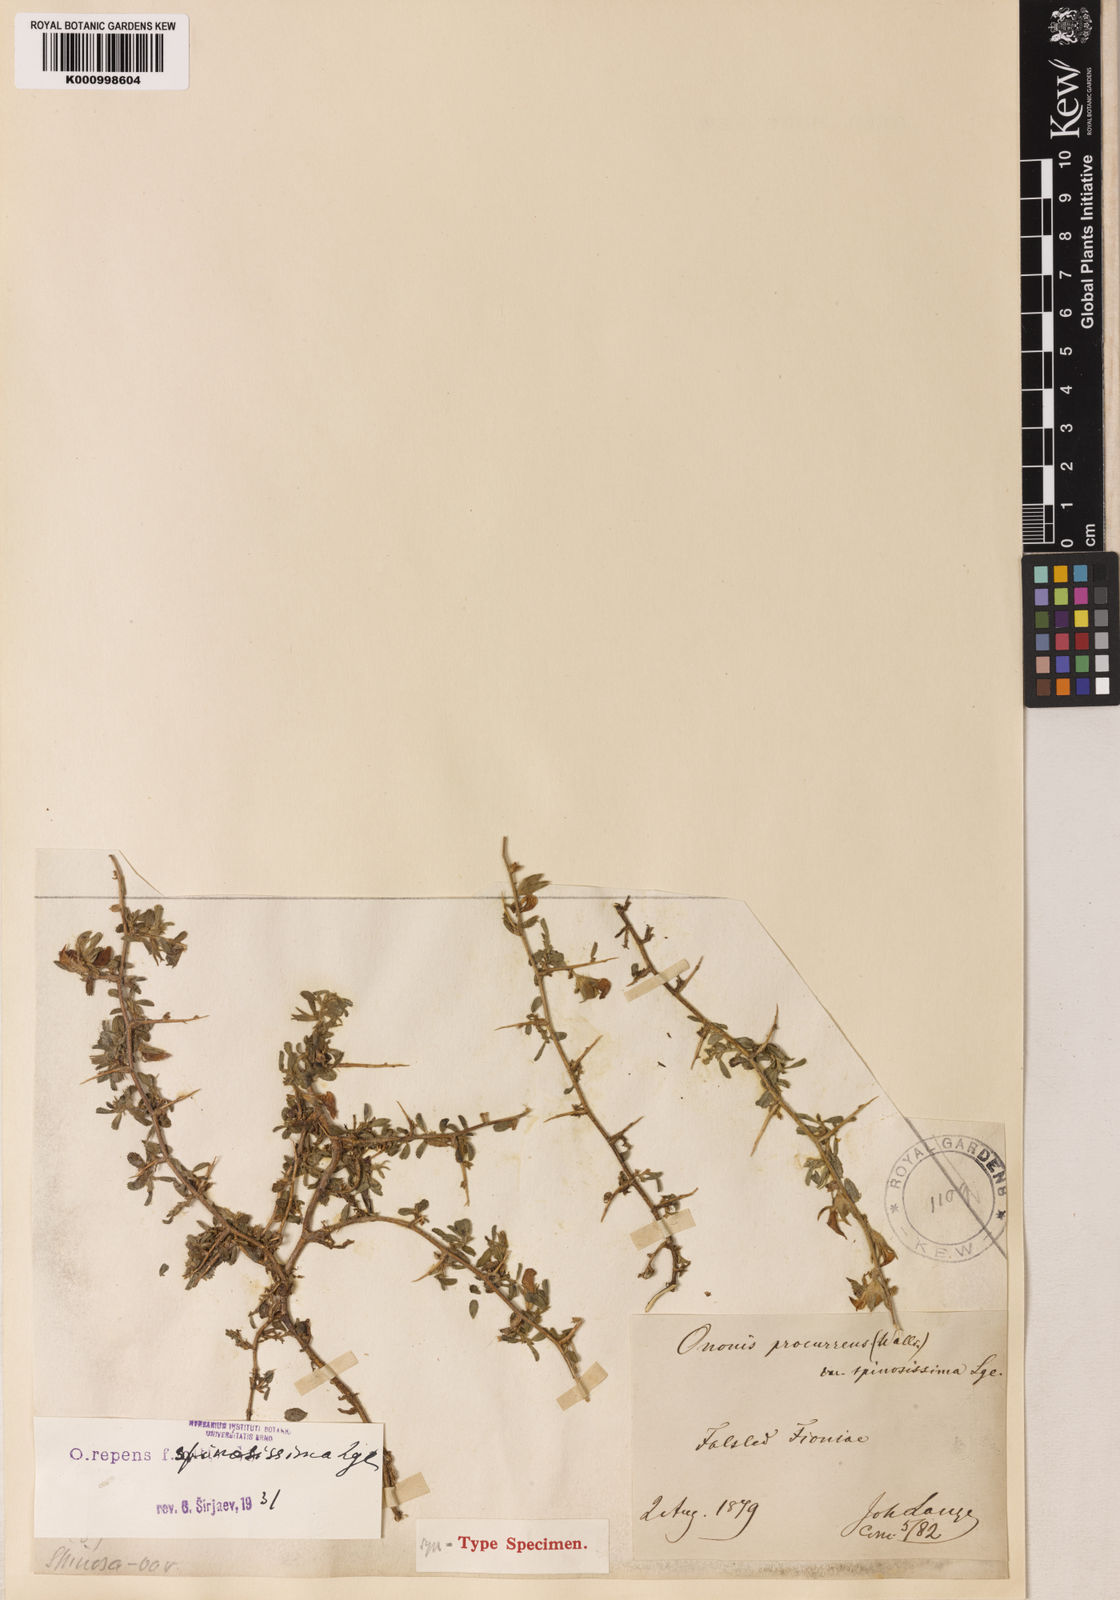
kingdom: Plantae
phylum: Tracheophyta
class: Magnoliopsida
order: Fabales
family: Fabaceae
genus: Ononis
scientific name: Ononis spinosa
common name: Spiny restharrow
